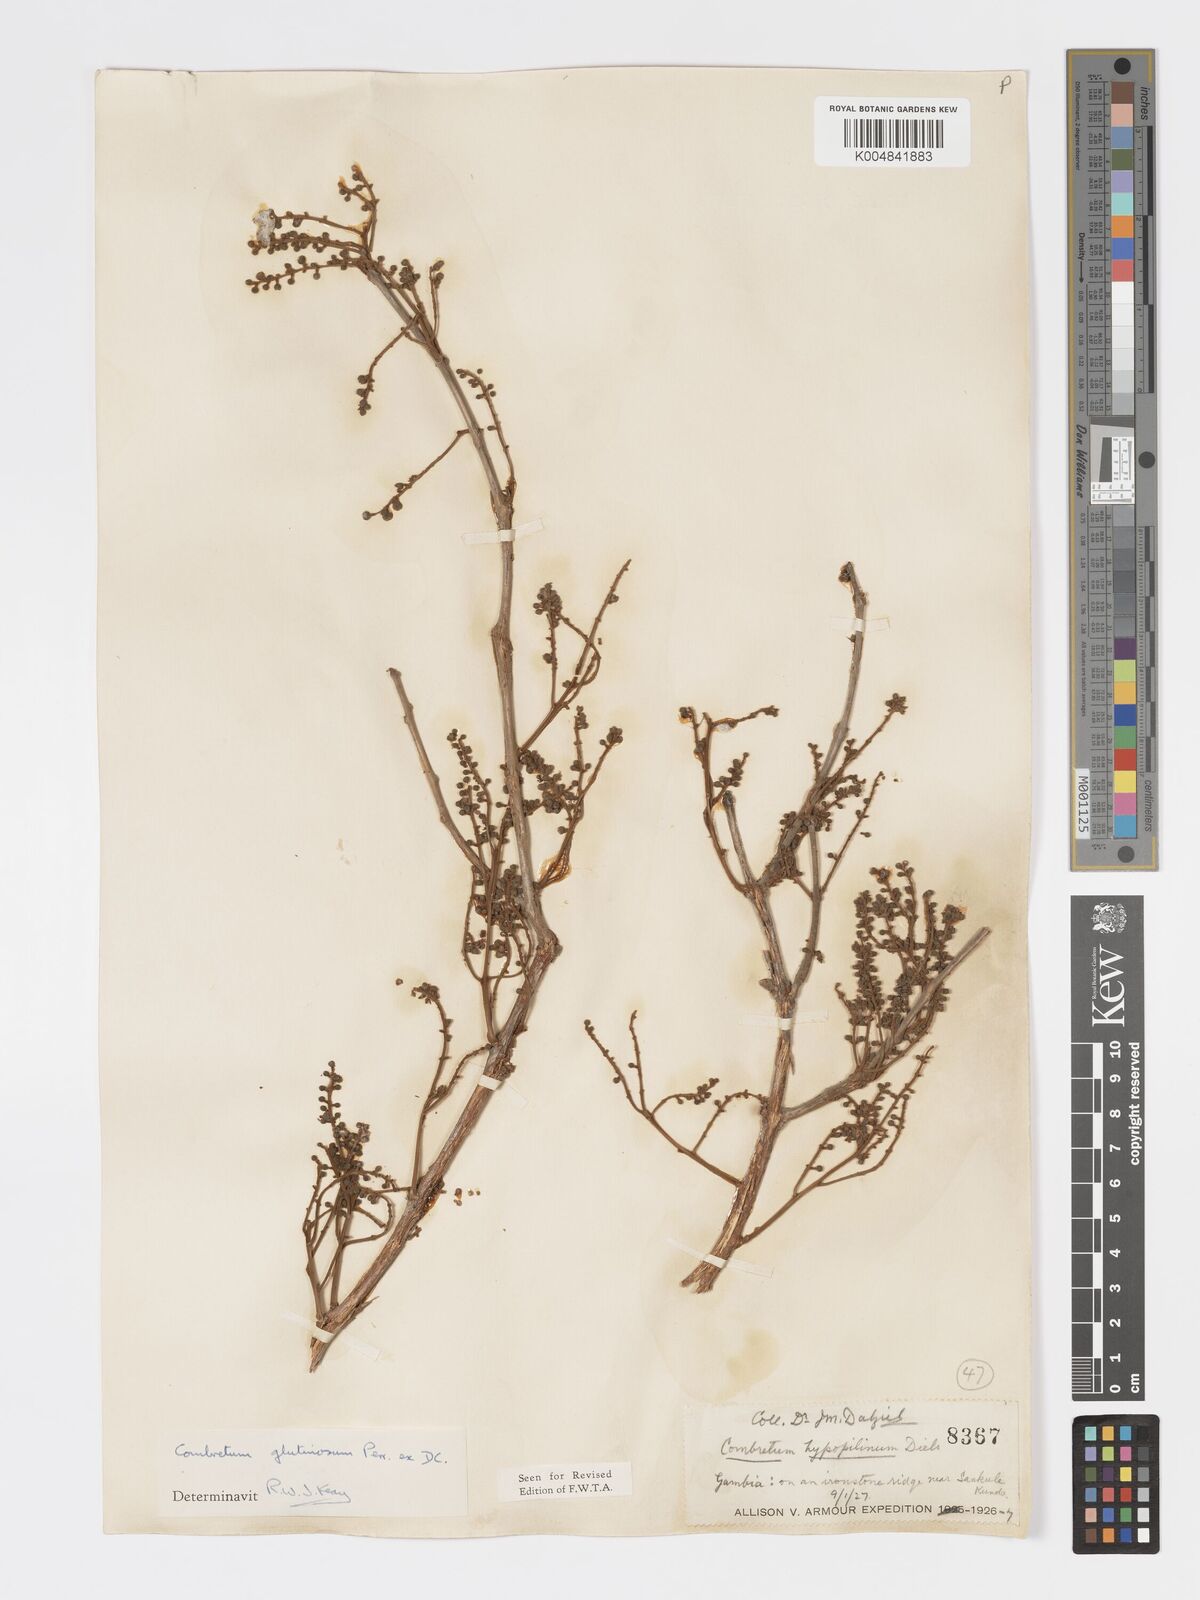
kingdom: Plantae
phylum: Tracheophyta
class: Magnoliopsida
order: Myrtales
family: Combretaceae
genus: Combretum
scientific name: Combretum
